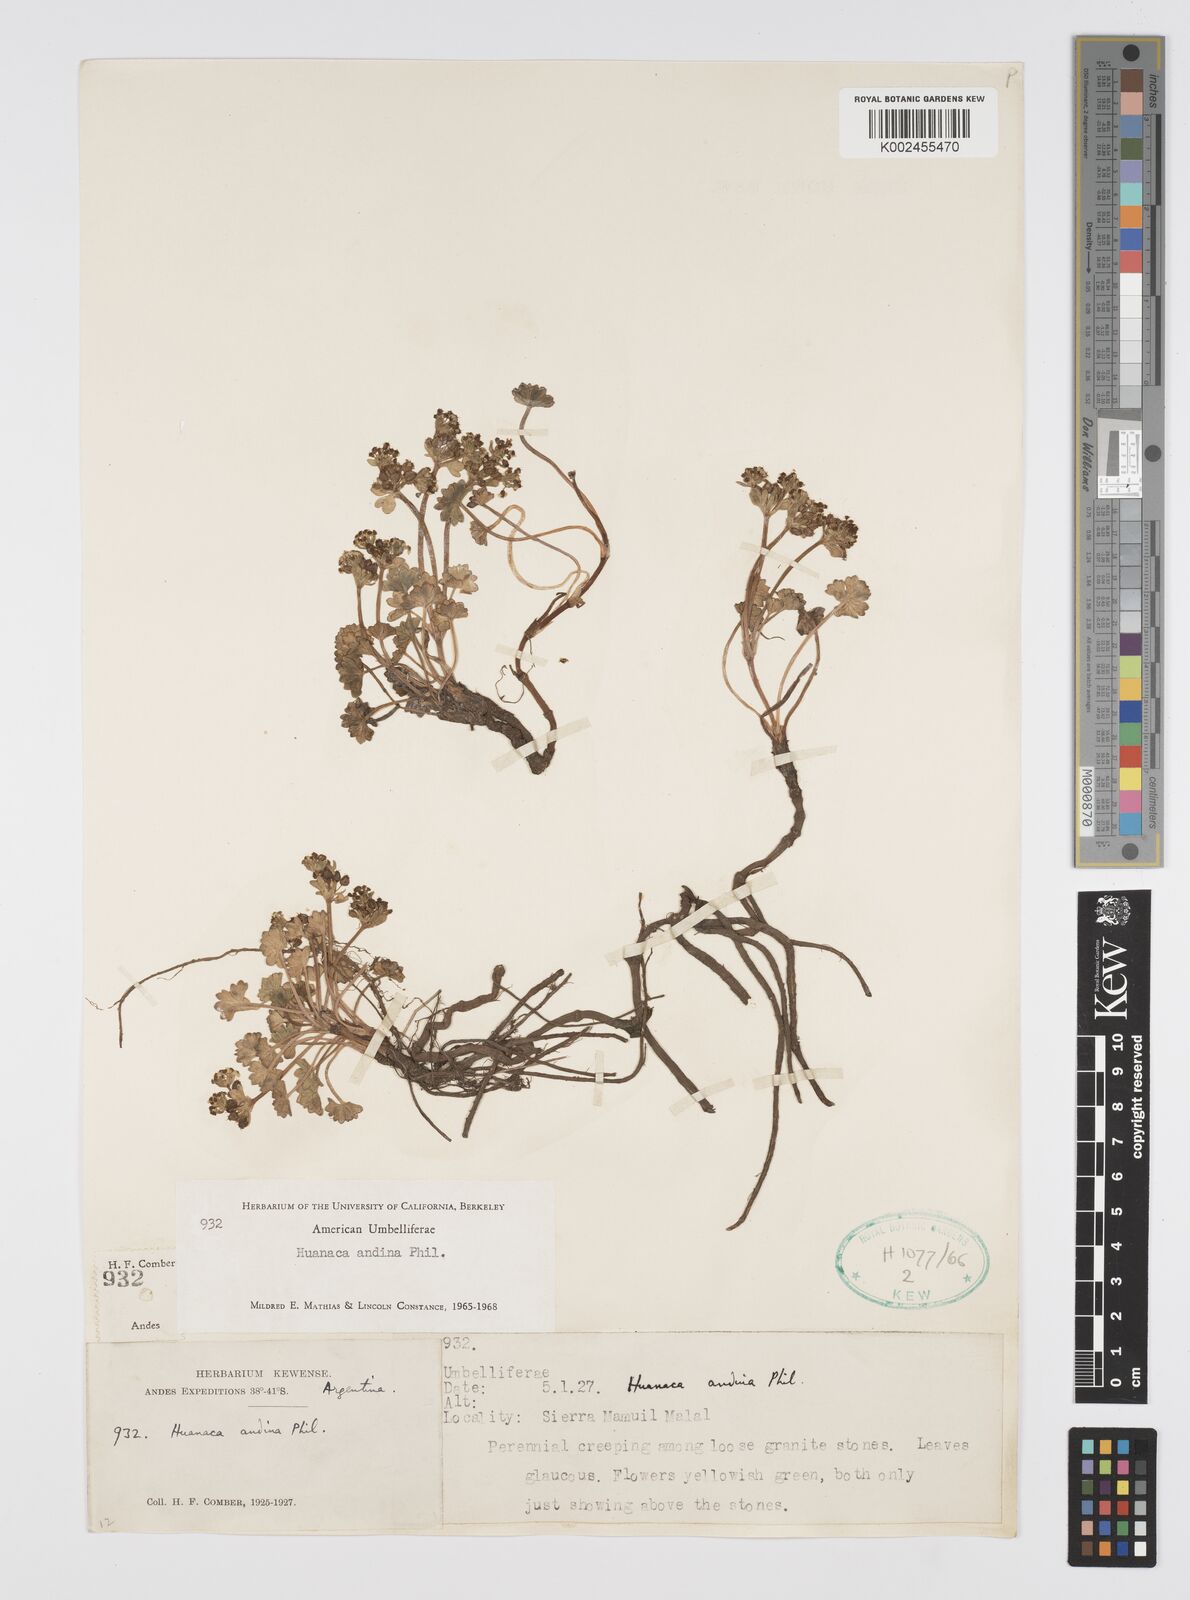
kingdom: Plantae
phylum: Tracheophyta
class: Magnoliopsida
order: Apiales
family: Apiaceae
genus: Azorella
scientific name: Azorella andina
